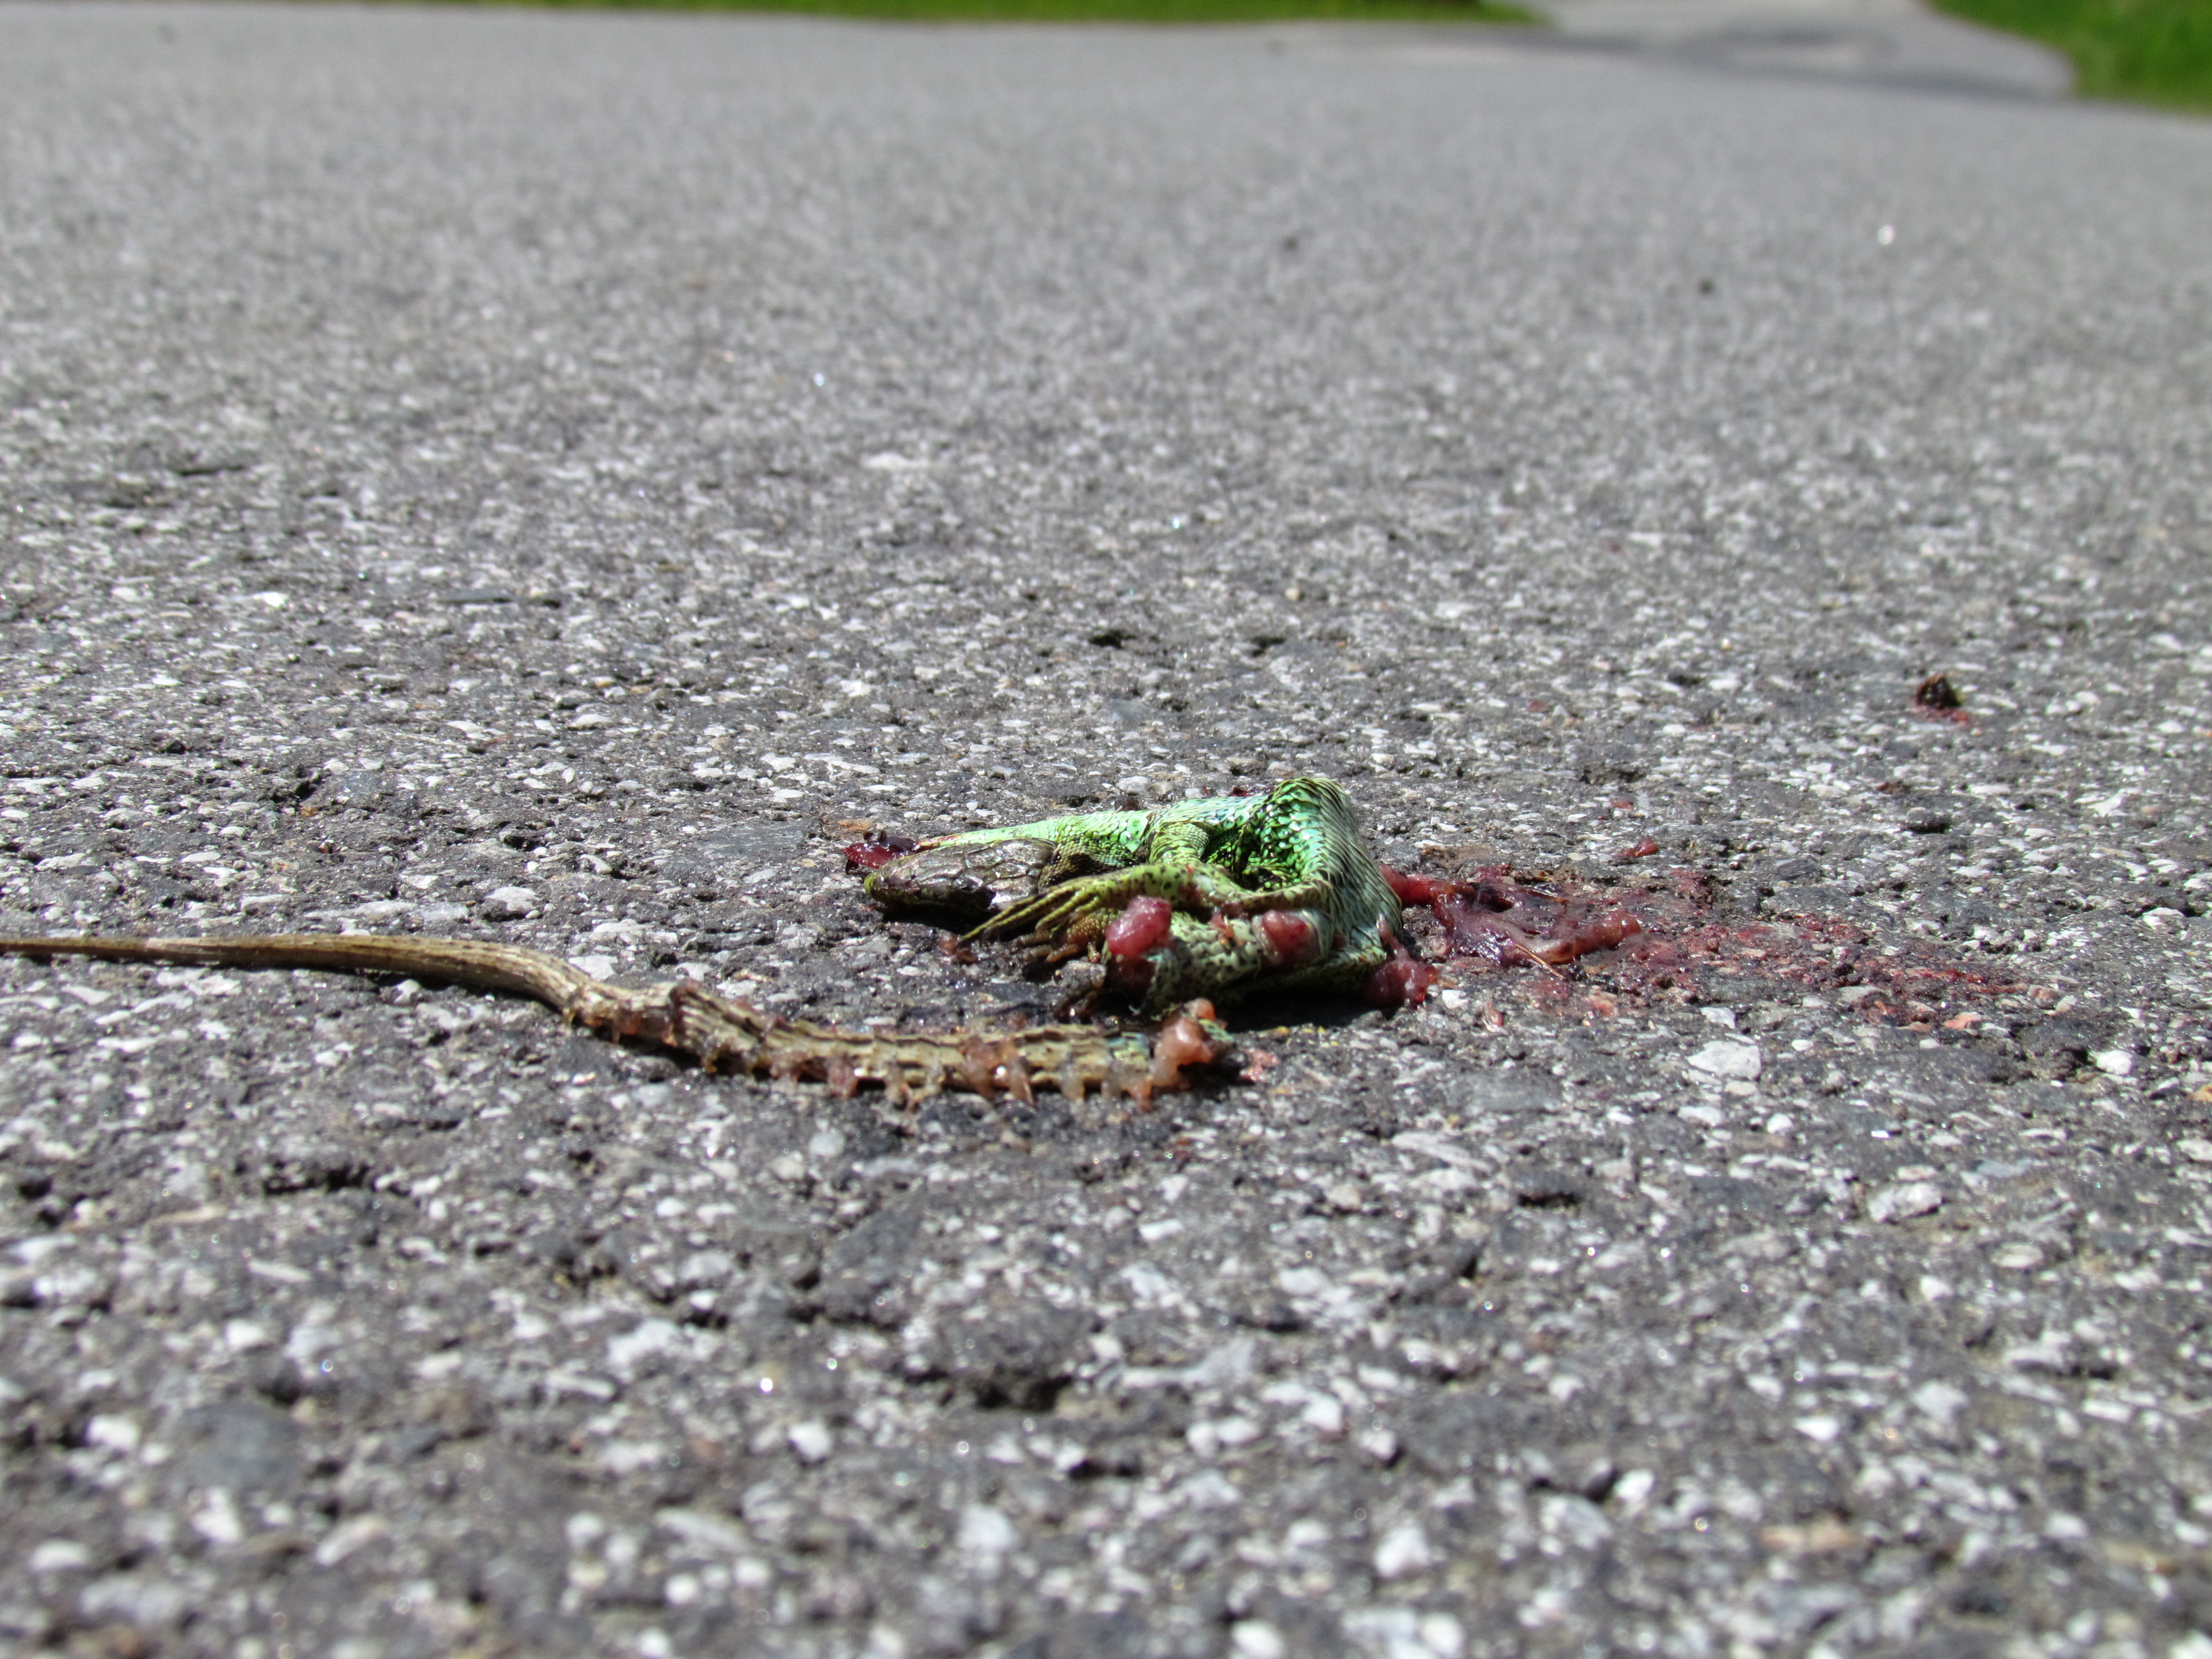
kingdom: Animalia
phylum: Chordata
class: Squamata
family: Lacertidae
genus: Lacerta
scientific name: Lacerta agilis
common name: Sand lizard
